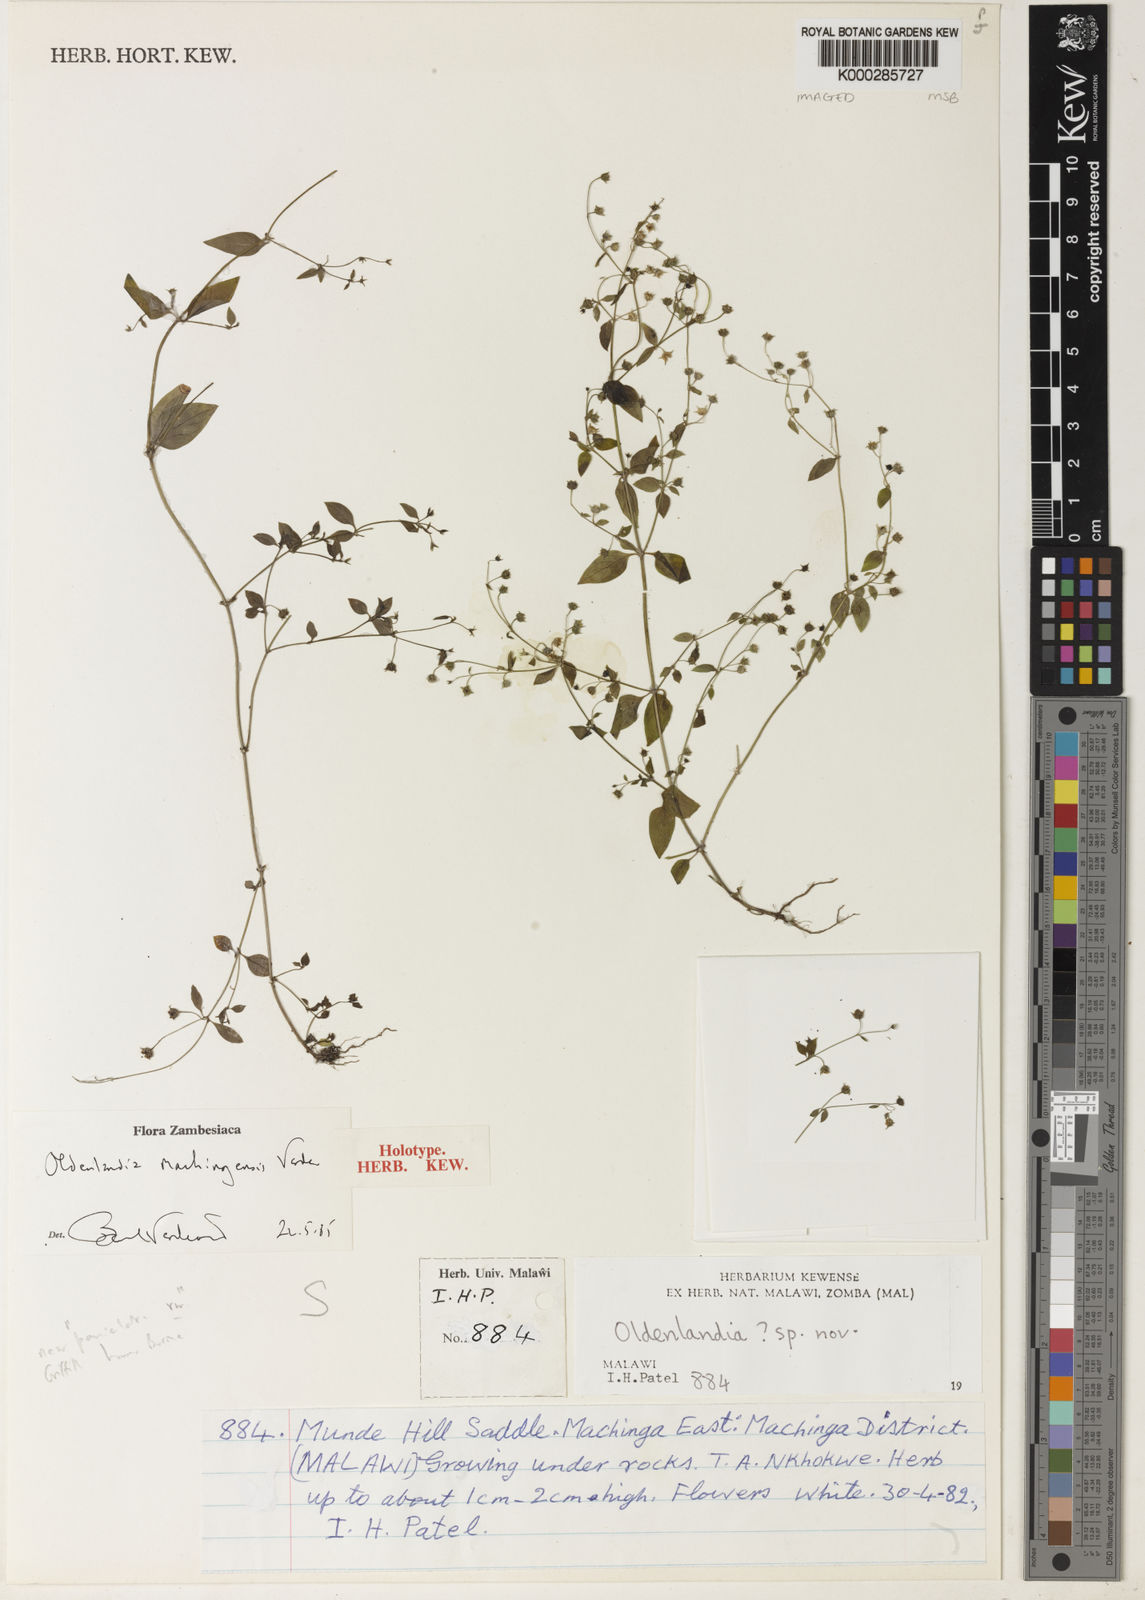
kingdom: Plantae
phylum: Tracheophyta
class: Magnoliopsida
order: Gentianales
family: Rubiaceae
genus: Oldenlandia
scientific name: Oldenlandia machingensis
